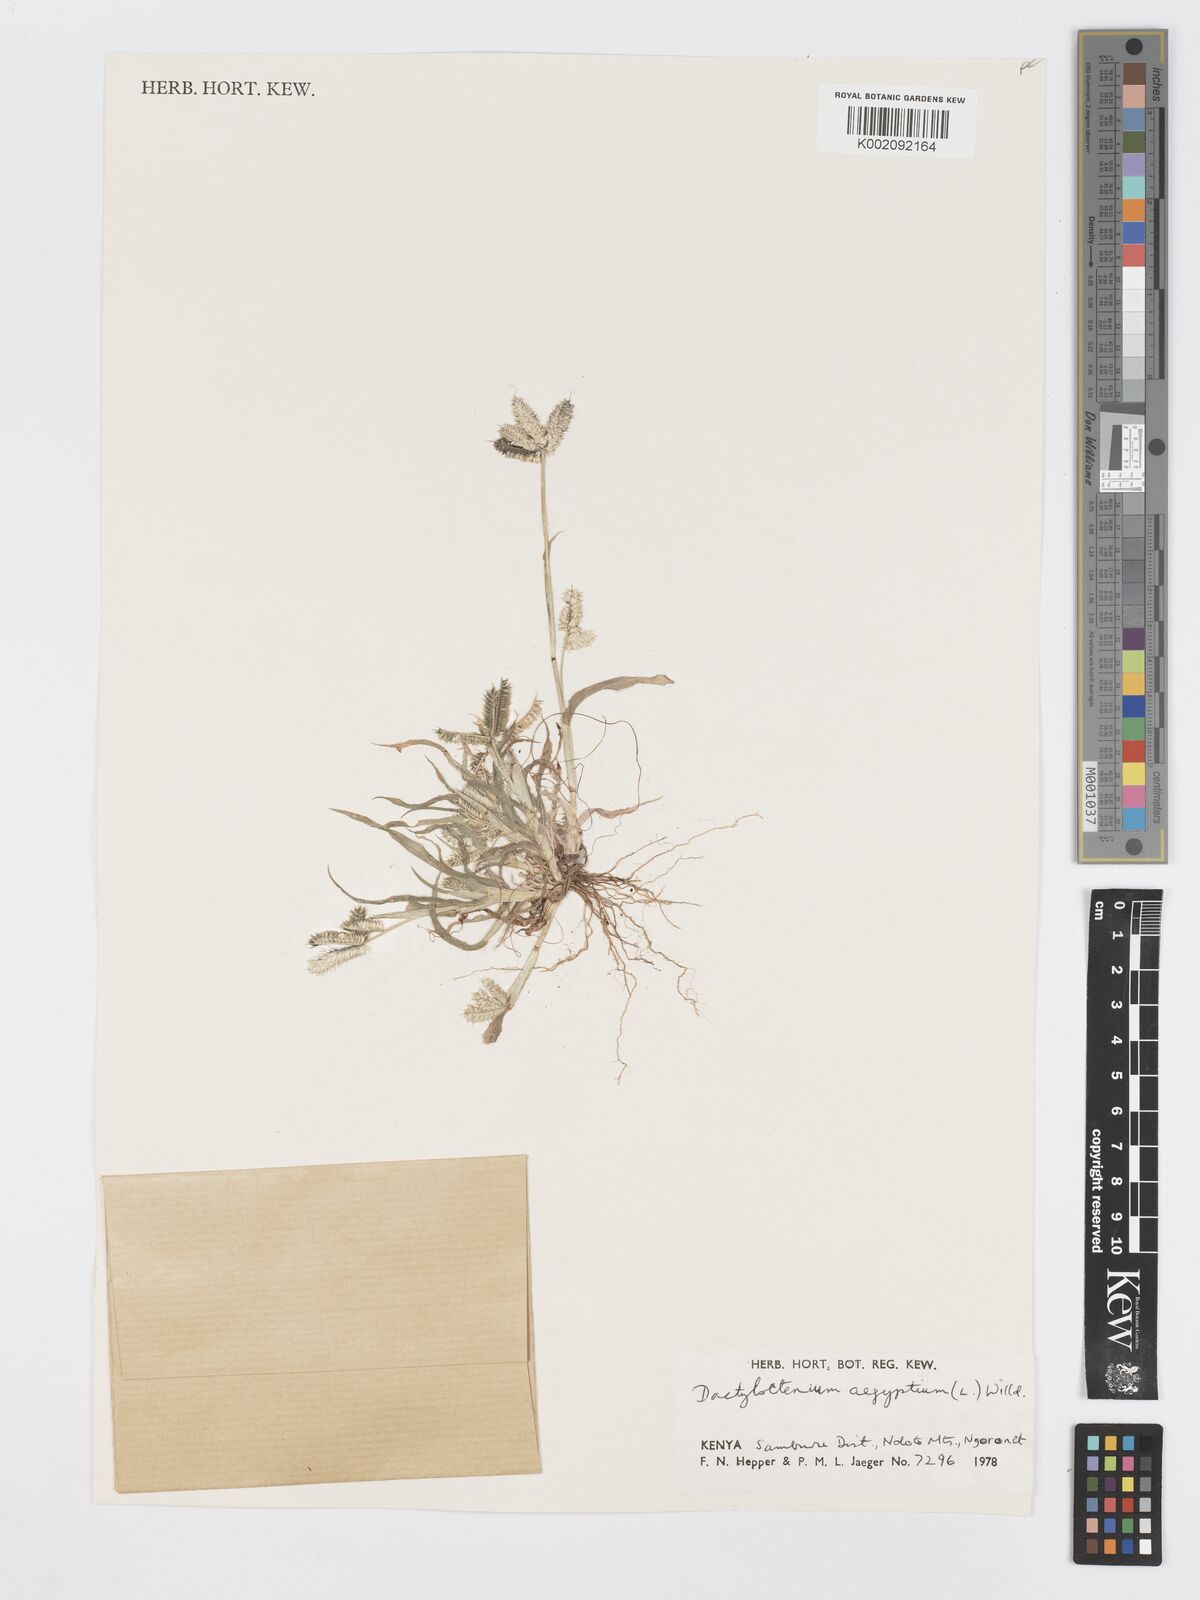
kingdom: Plantae
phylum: Tracheophyta
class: Liliopsida
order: Poales
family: Poaceae
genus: Dactyloctenium
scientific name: Dactyloctenium aegyptium
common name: Egyptian grass
